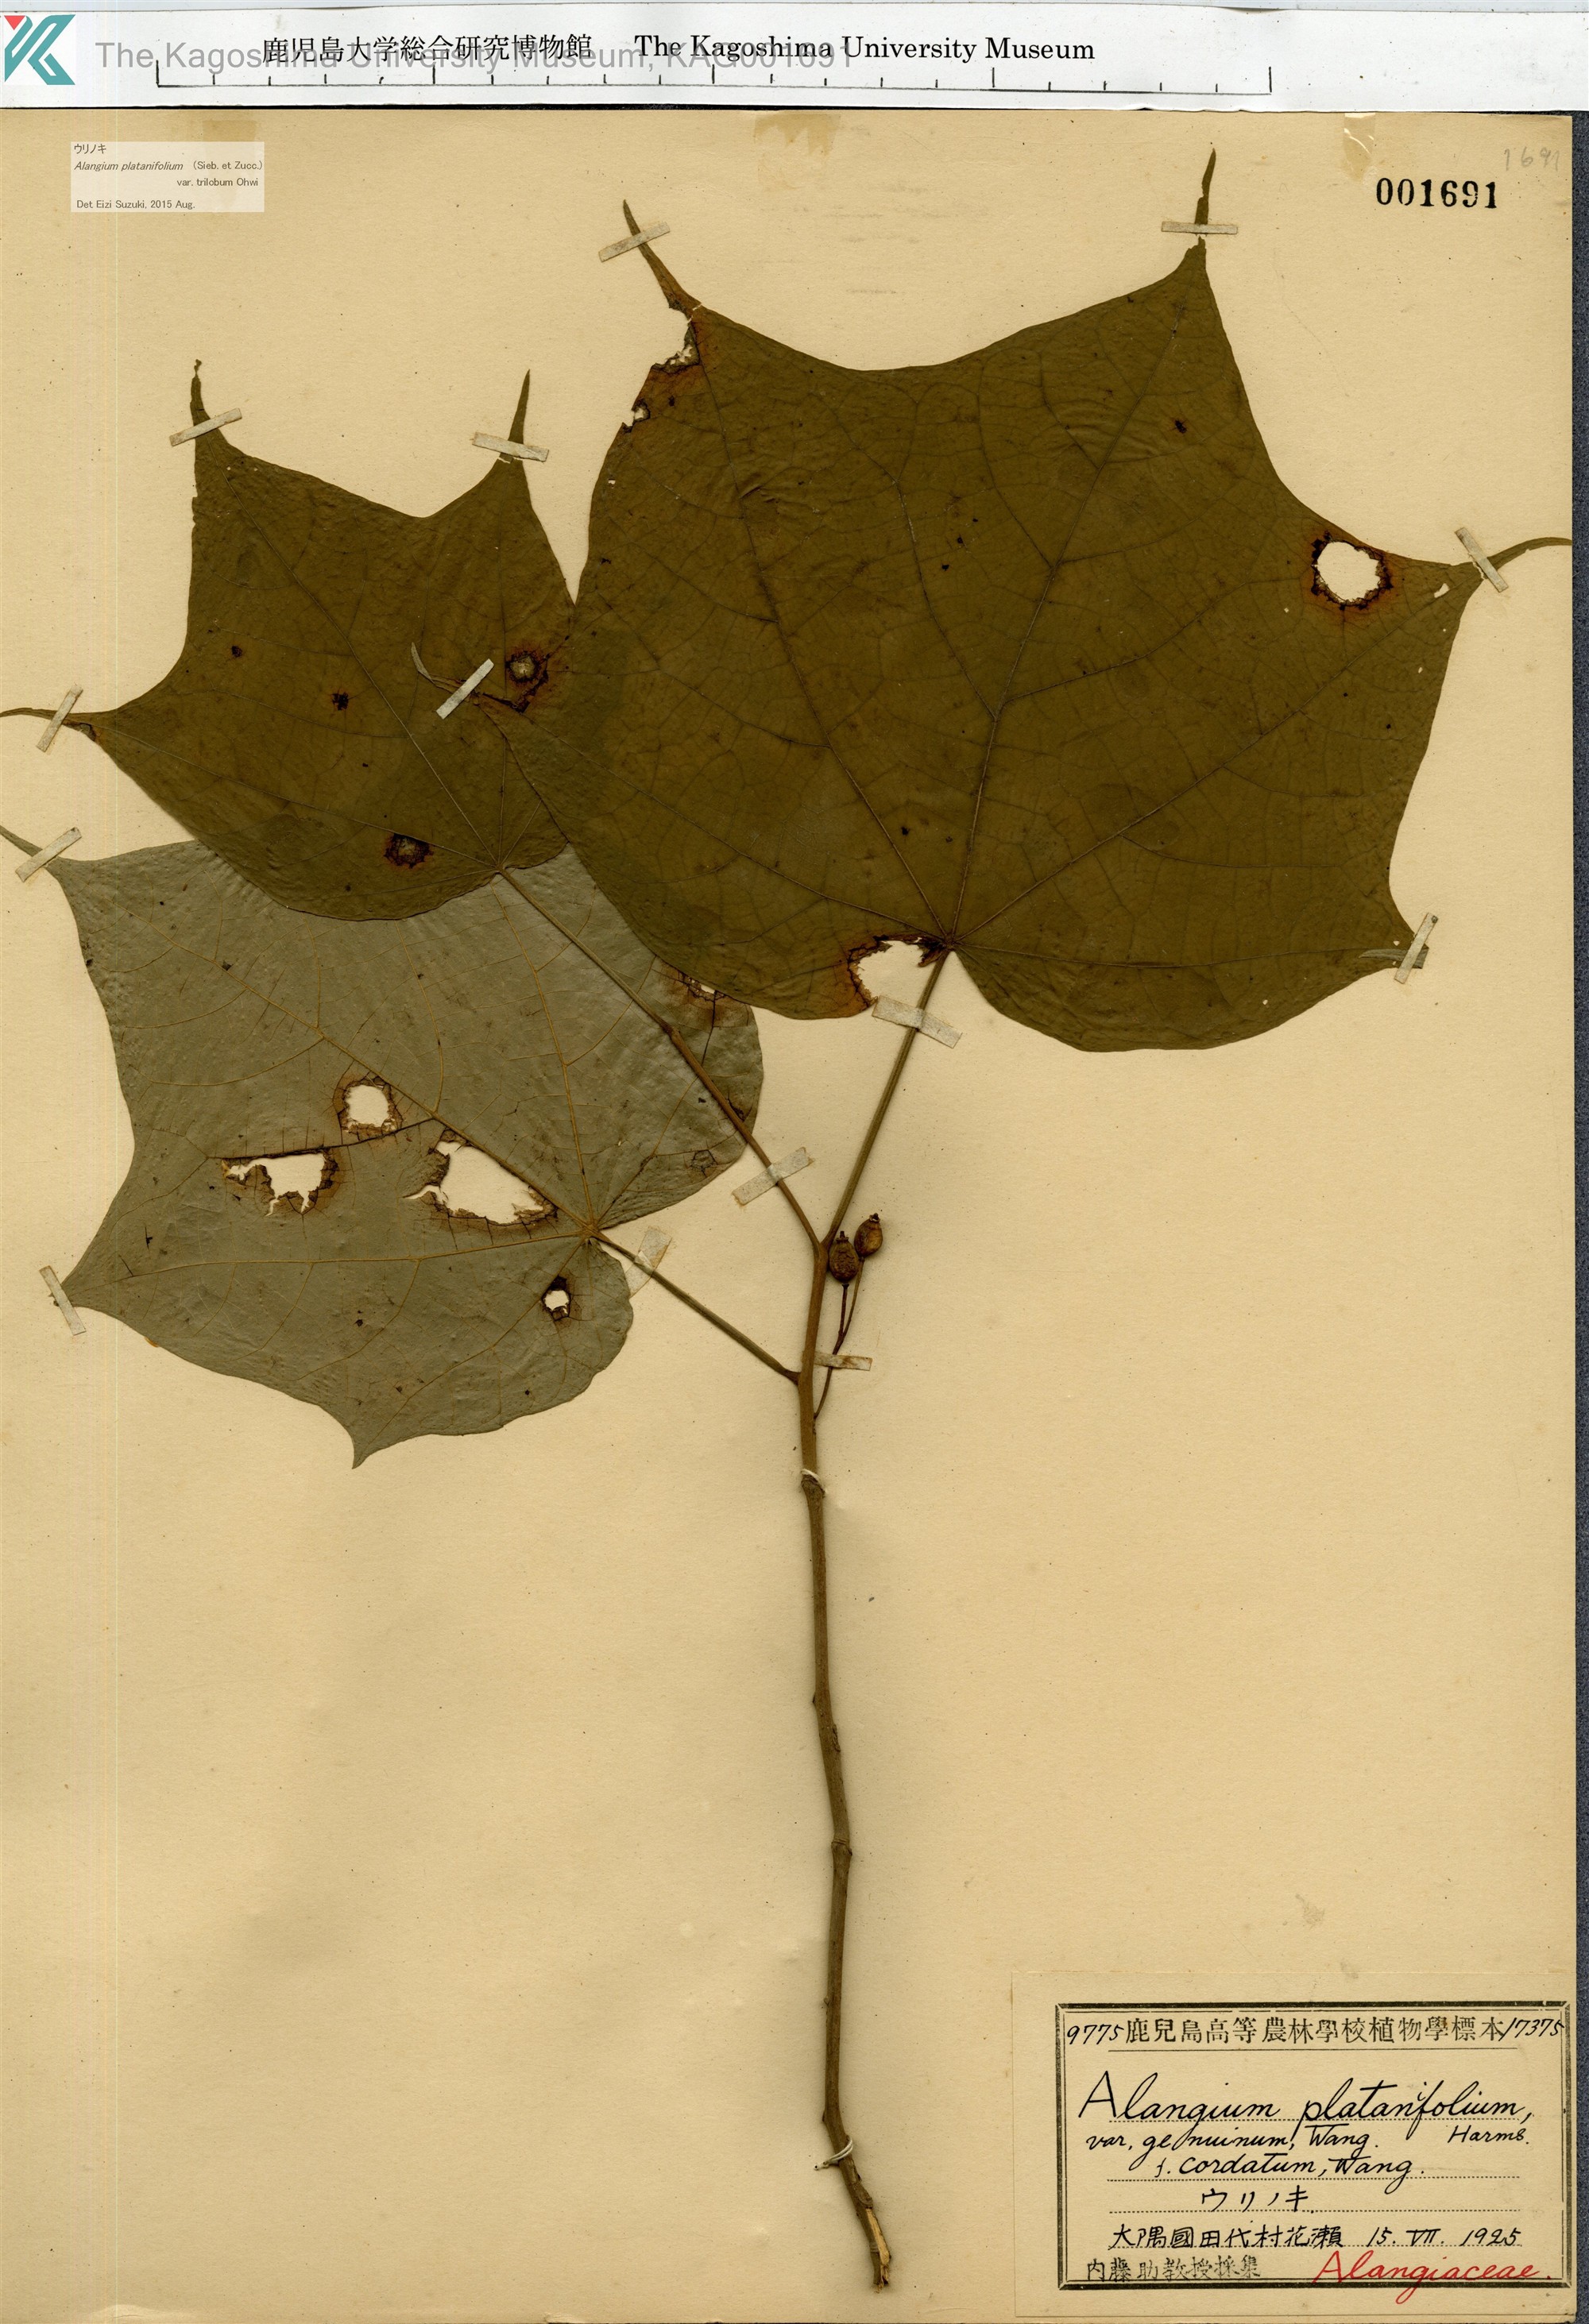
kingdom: Plantae
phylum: Tracheophyta
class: Magnoliopsida
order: Cornales
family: Cornaceae
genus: Alangium
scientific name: Alangium platanifolium
